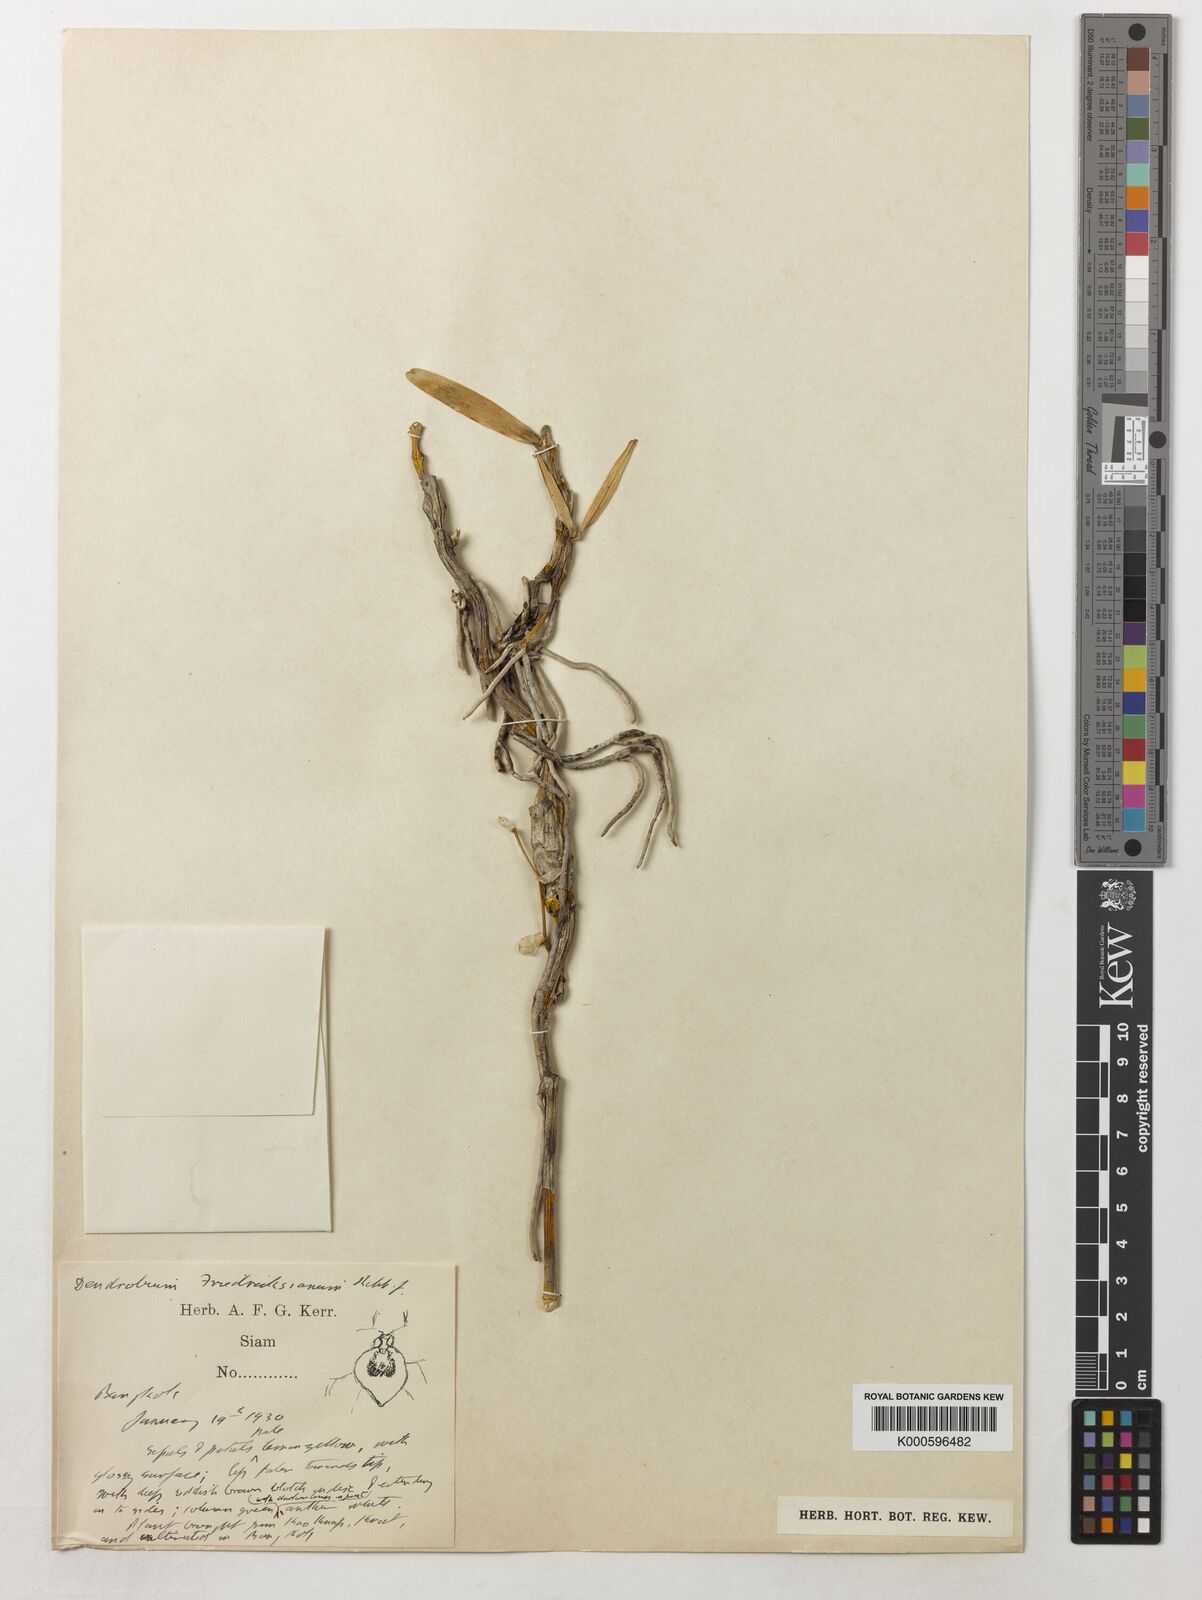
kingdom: Plantae
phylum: Tracheophyta
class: Liliopsida
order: Asparagales
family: Orchidaceae
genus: Dendrobium
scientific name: Dendrobium friedericksianum
